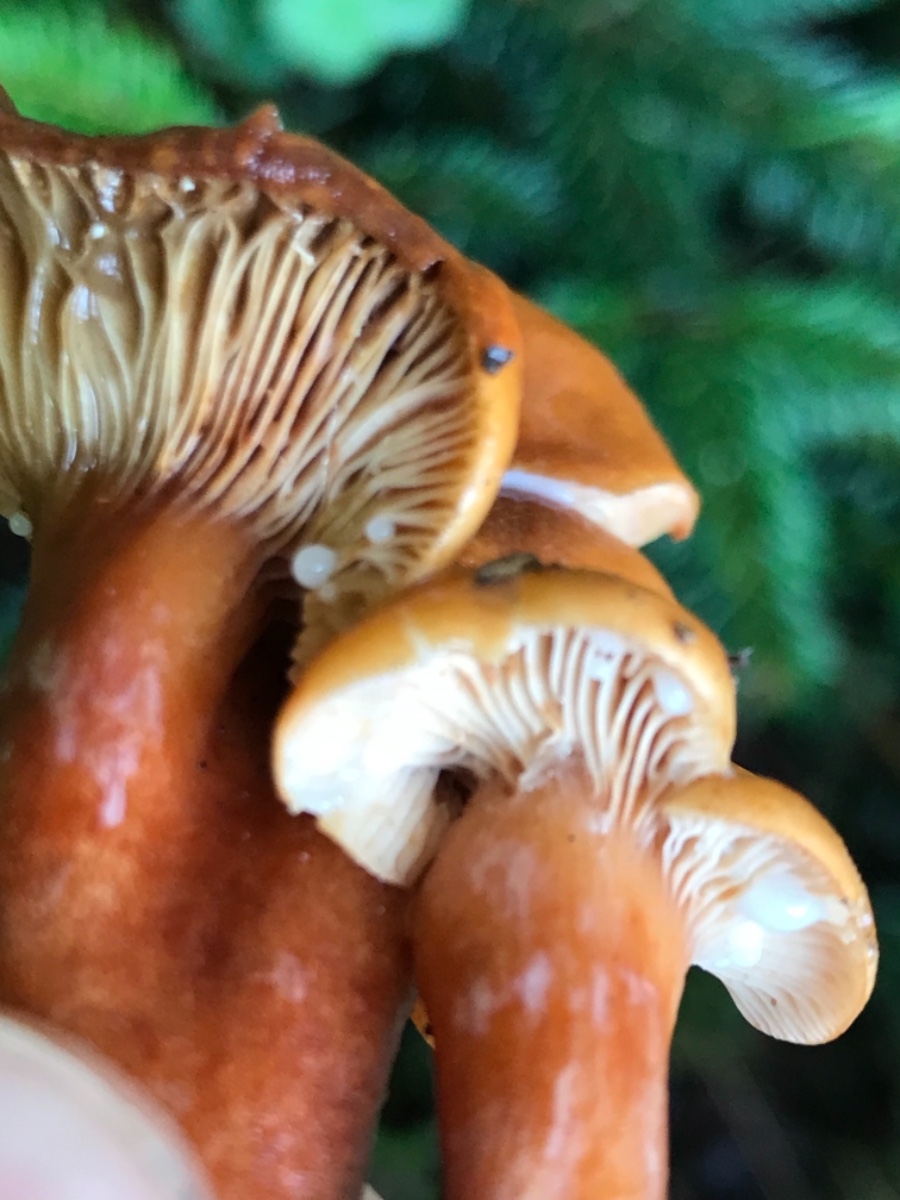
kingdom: Fungi
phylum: Basidiomycota
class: Agaricomycetes
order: Russulales
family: Russulaceae
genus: Lactarius
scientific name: Lactarius aurantiacus
